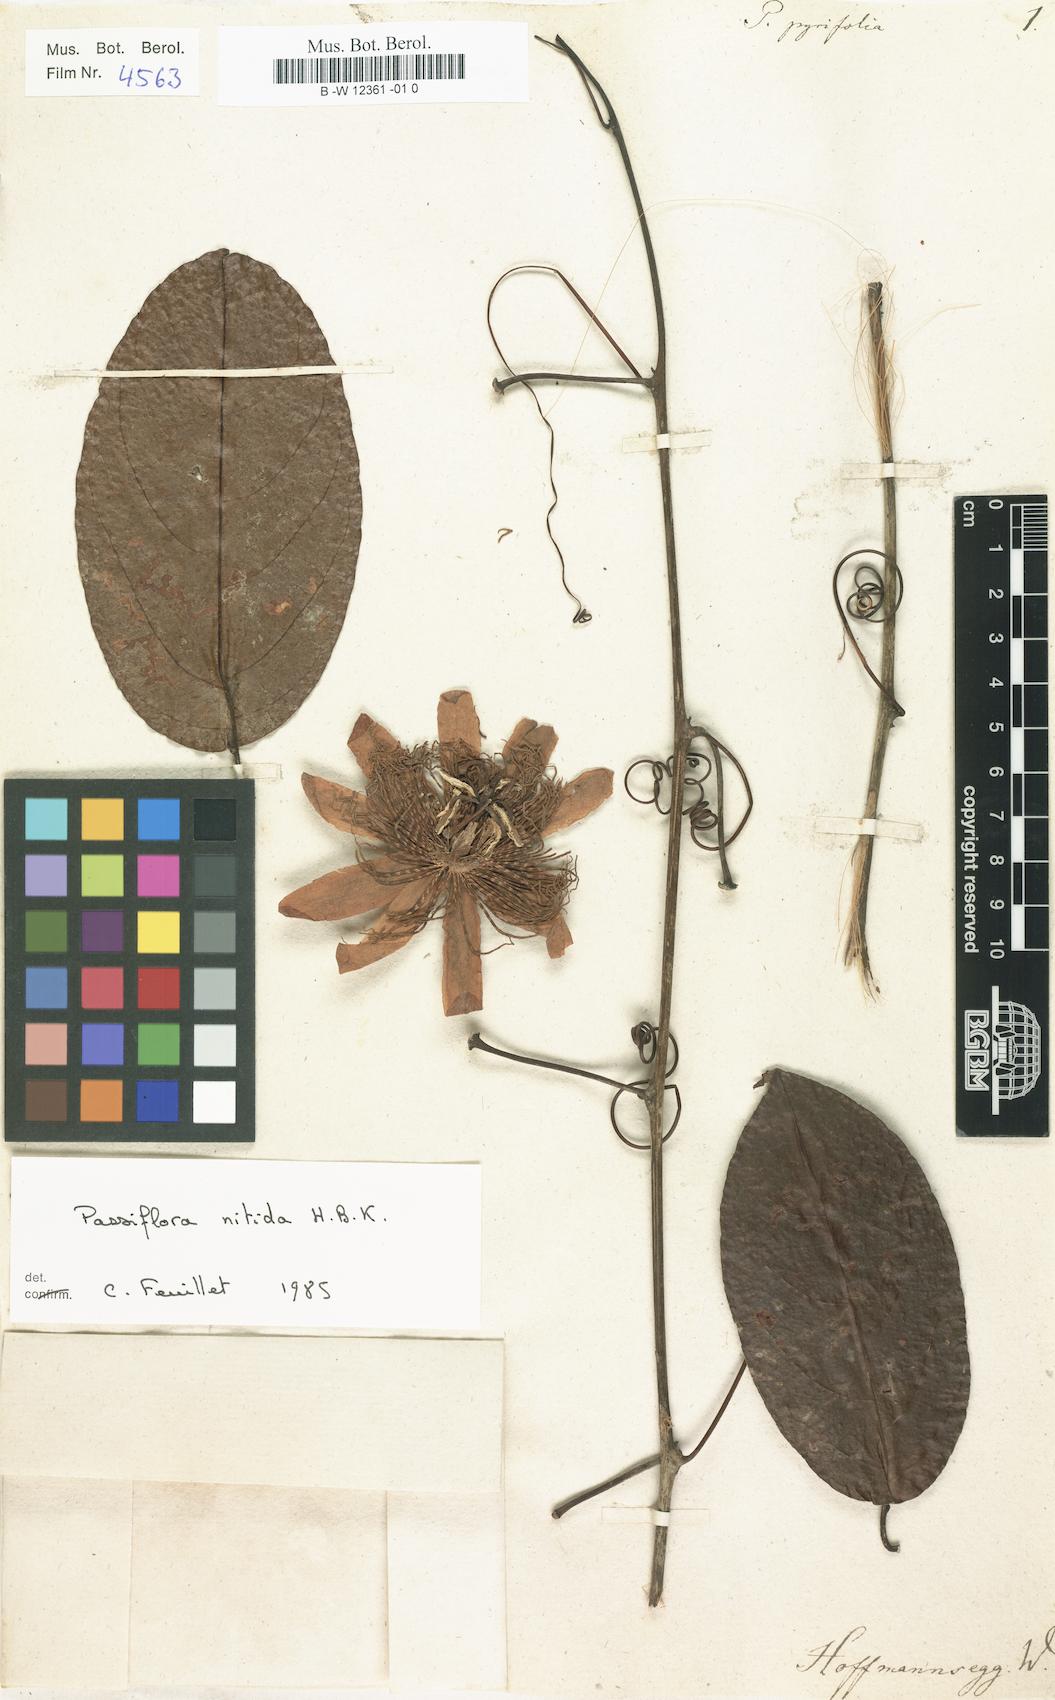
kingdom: Plantae
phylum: Tracheophyta
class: Magnoliopsida
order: Malpighiales
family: Passifloraceae
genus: Passiflora
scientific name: Passiflora
